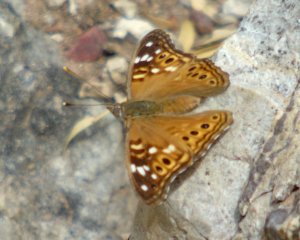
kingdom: Animalia
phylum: Arthropoda
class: Insecta
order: Lepidoptera
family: Nymphalidae
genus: Asterocampa
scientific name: Asterocampa leilia
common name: Empress Leilia
